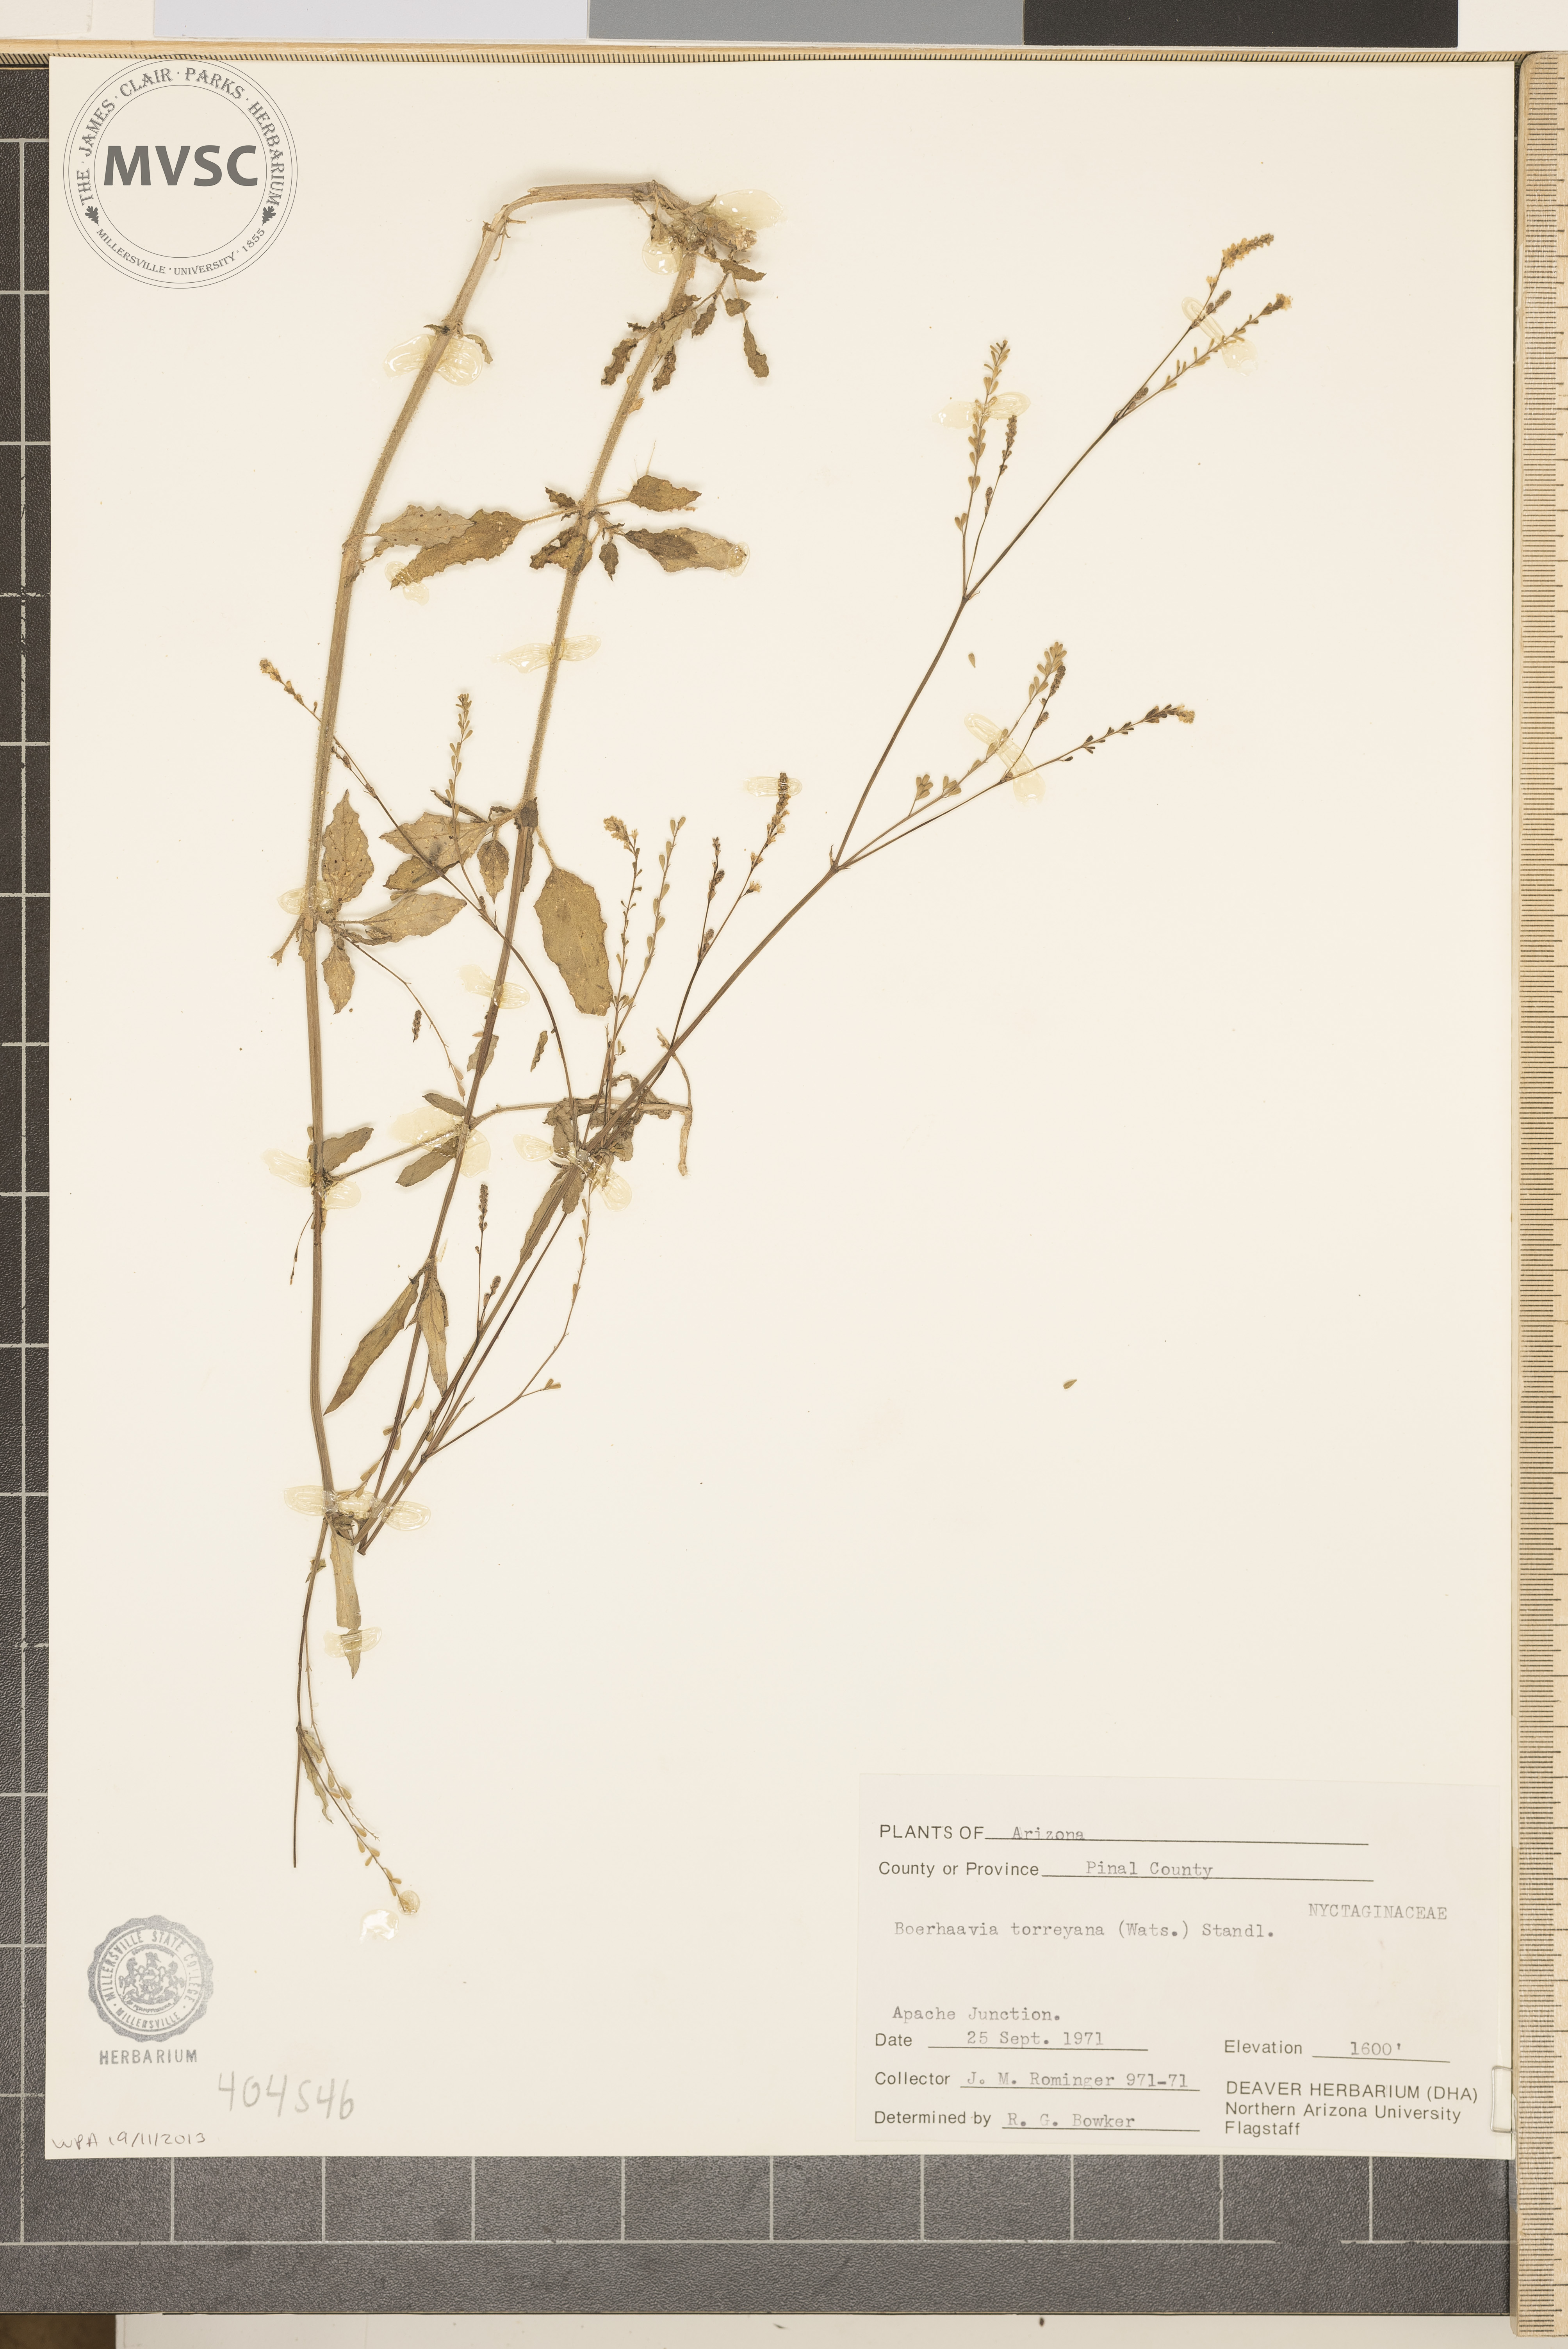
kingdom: Plantae
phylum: Tracheophyta
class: Magnoliopsida
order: Caryophyllales
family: Nyctaginaceae
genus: Boerhavia
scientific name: Boerhavia torreyana
